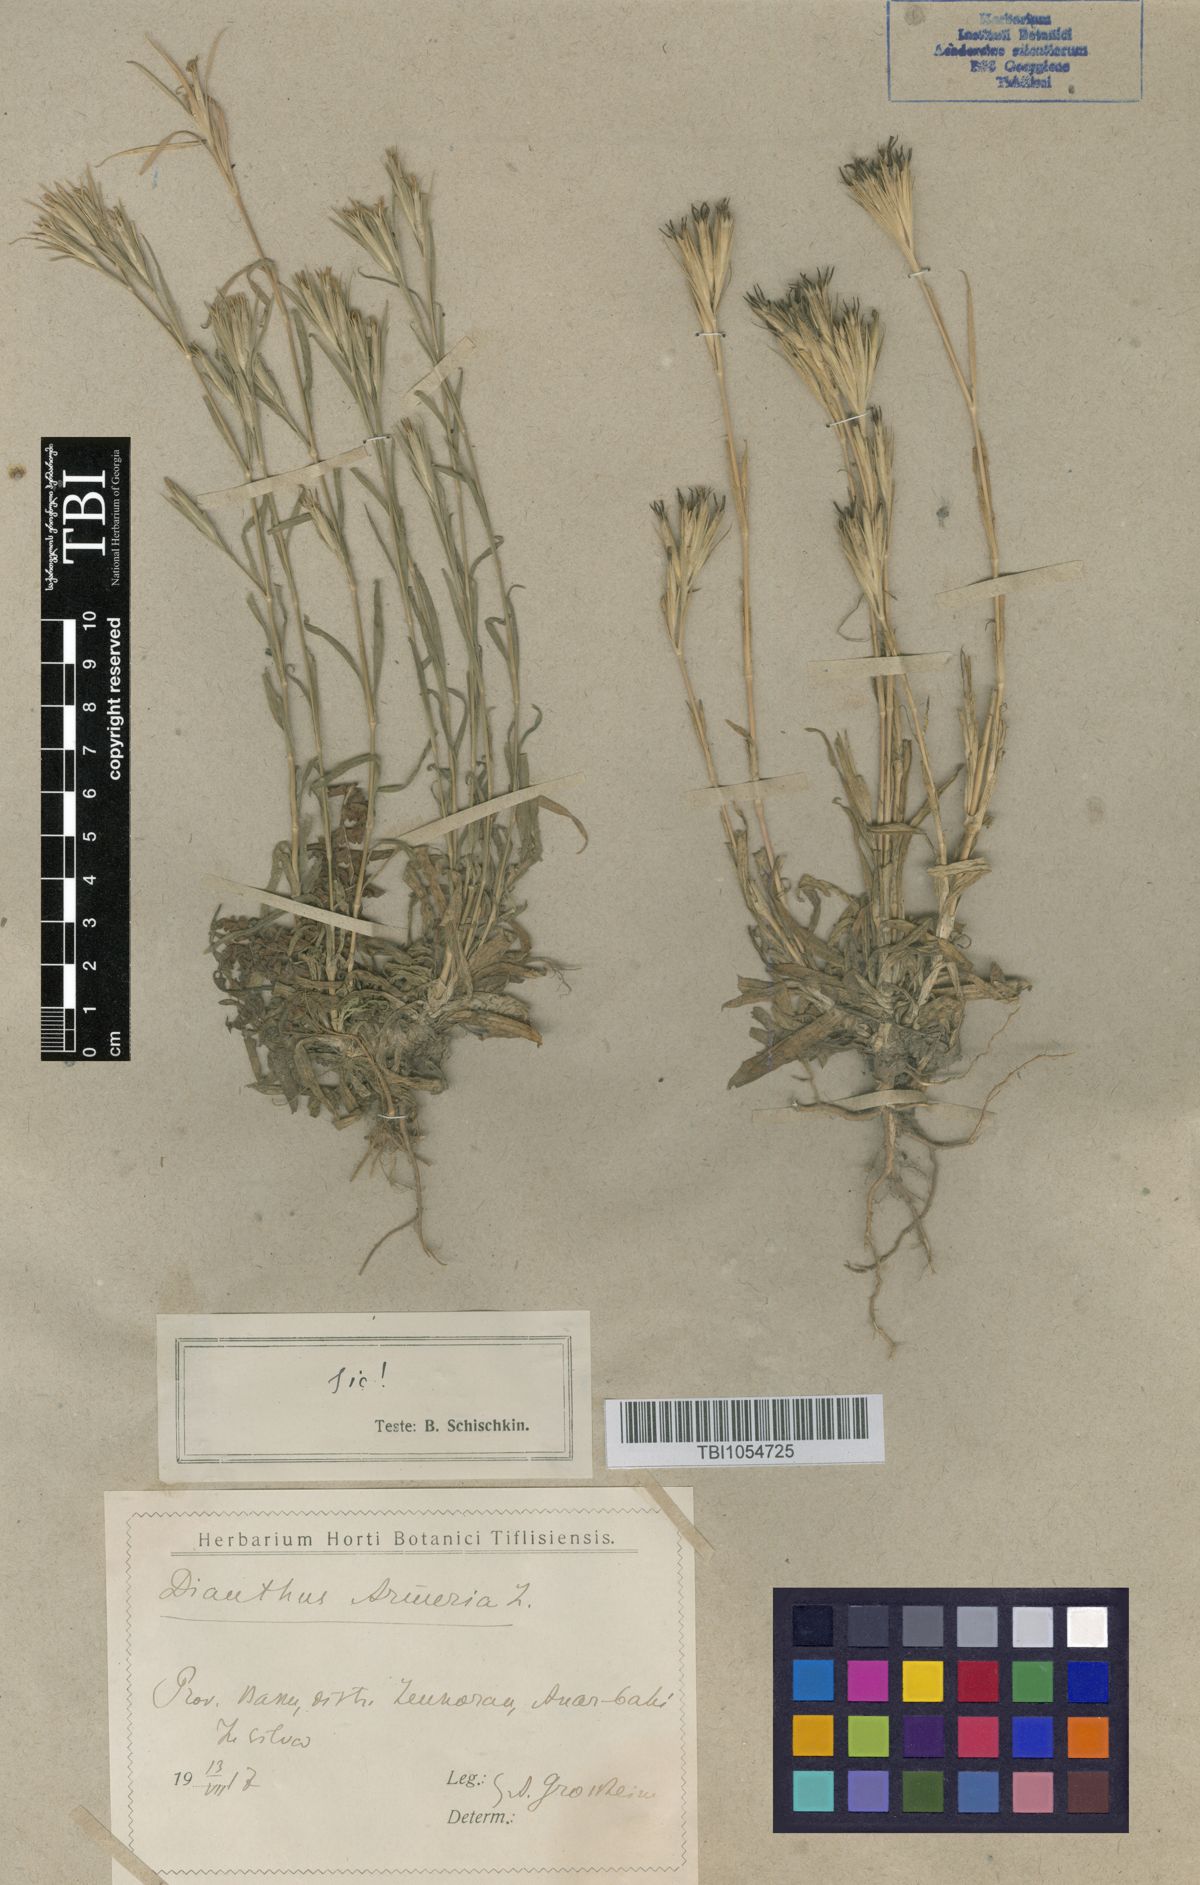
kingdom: Plantae
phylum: Tracheophyta
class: Magnoliopsida
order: Caryophyllales
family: Caryophyllaceae
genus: Dianthus
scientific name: Dianthus armeria
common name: Deptford pink
